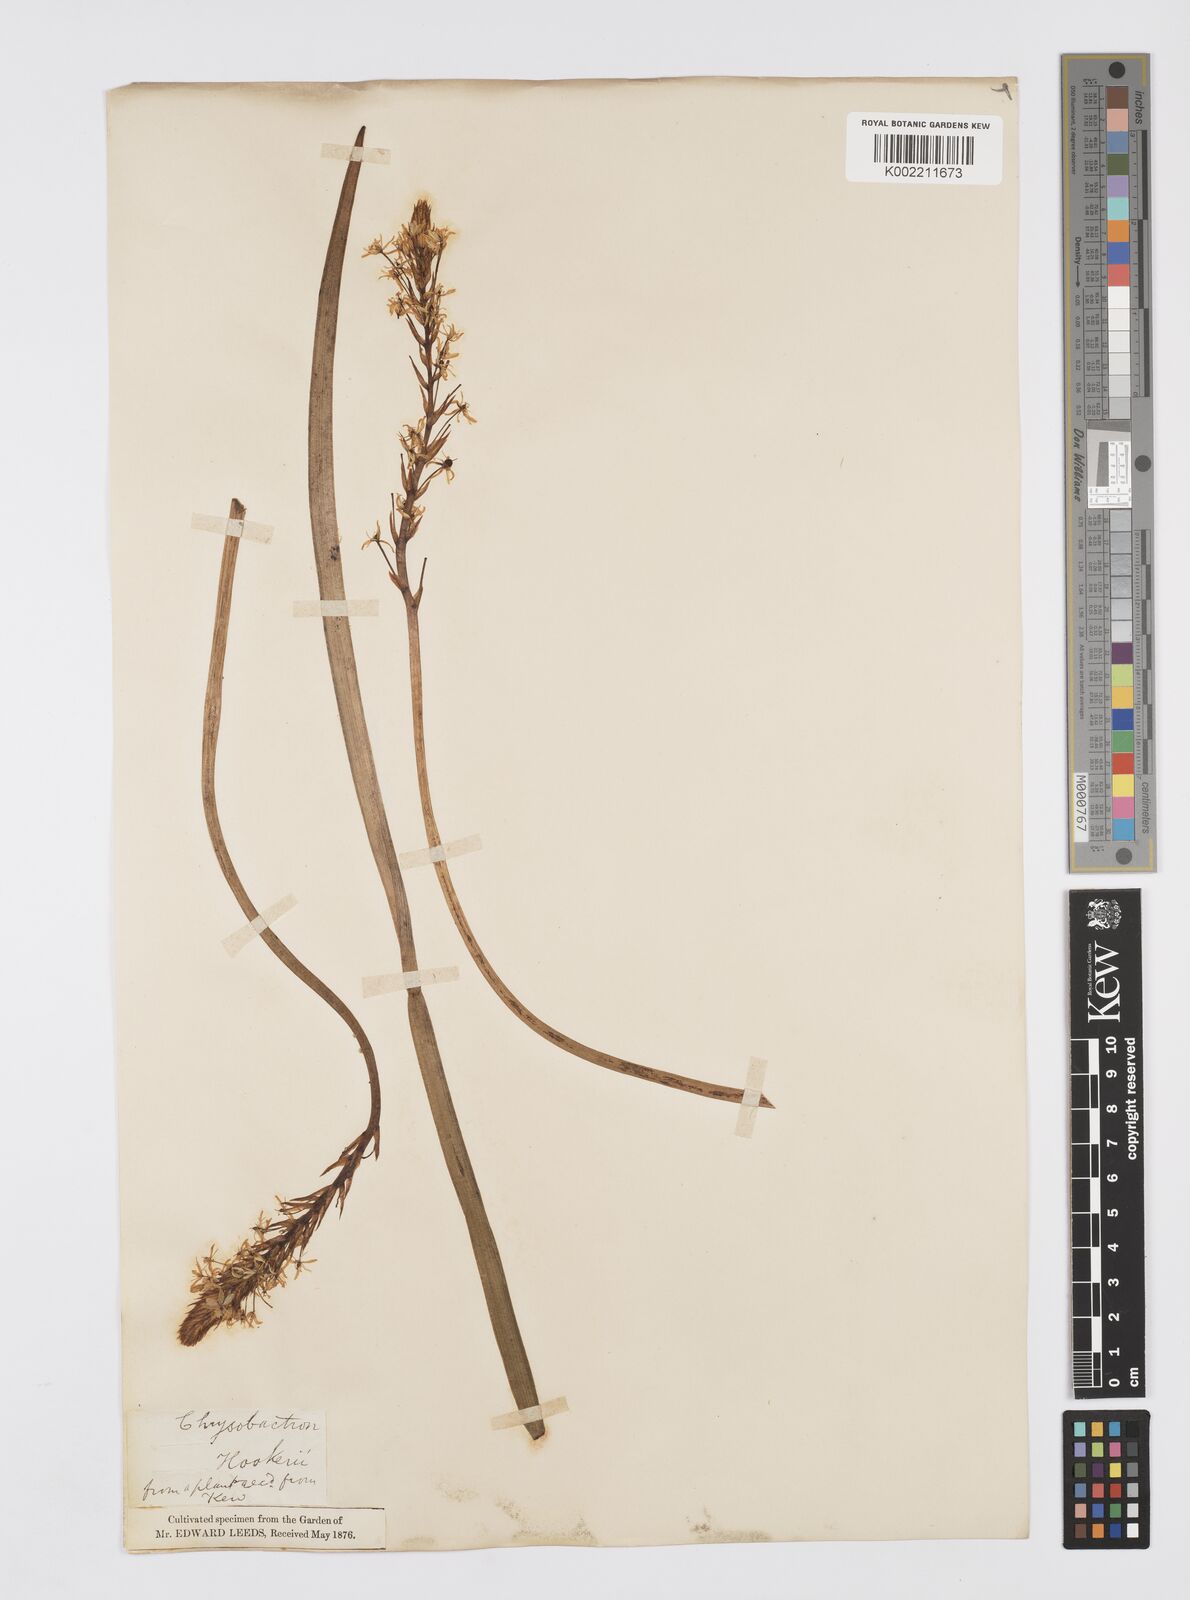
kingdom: Plantae
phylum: Tracheophyta
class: Liliopsida
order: Asparagales
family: Asphodelaceae
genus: Bulbinella
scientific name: Bulbinella hookeri
